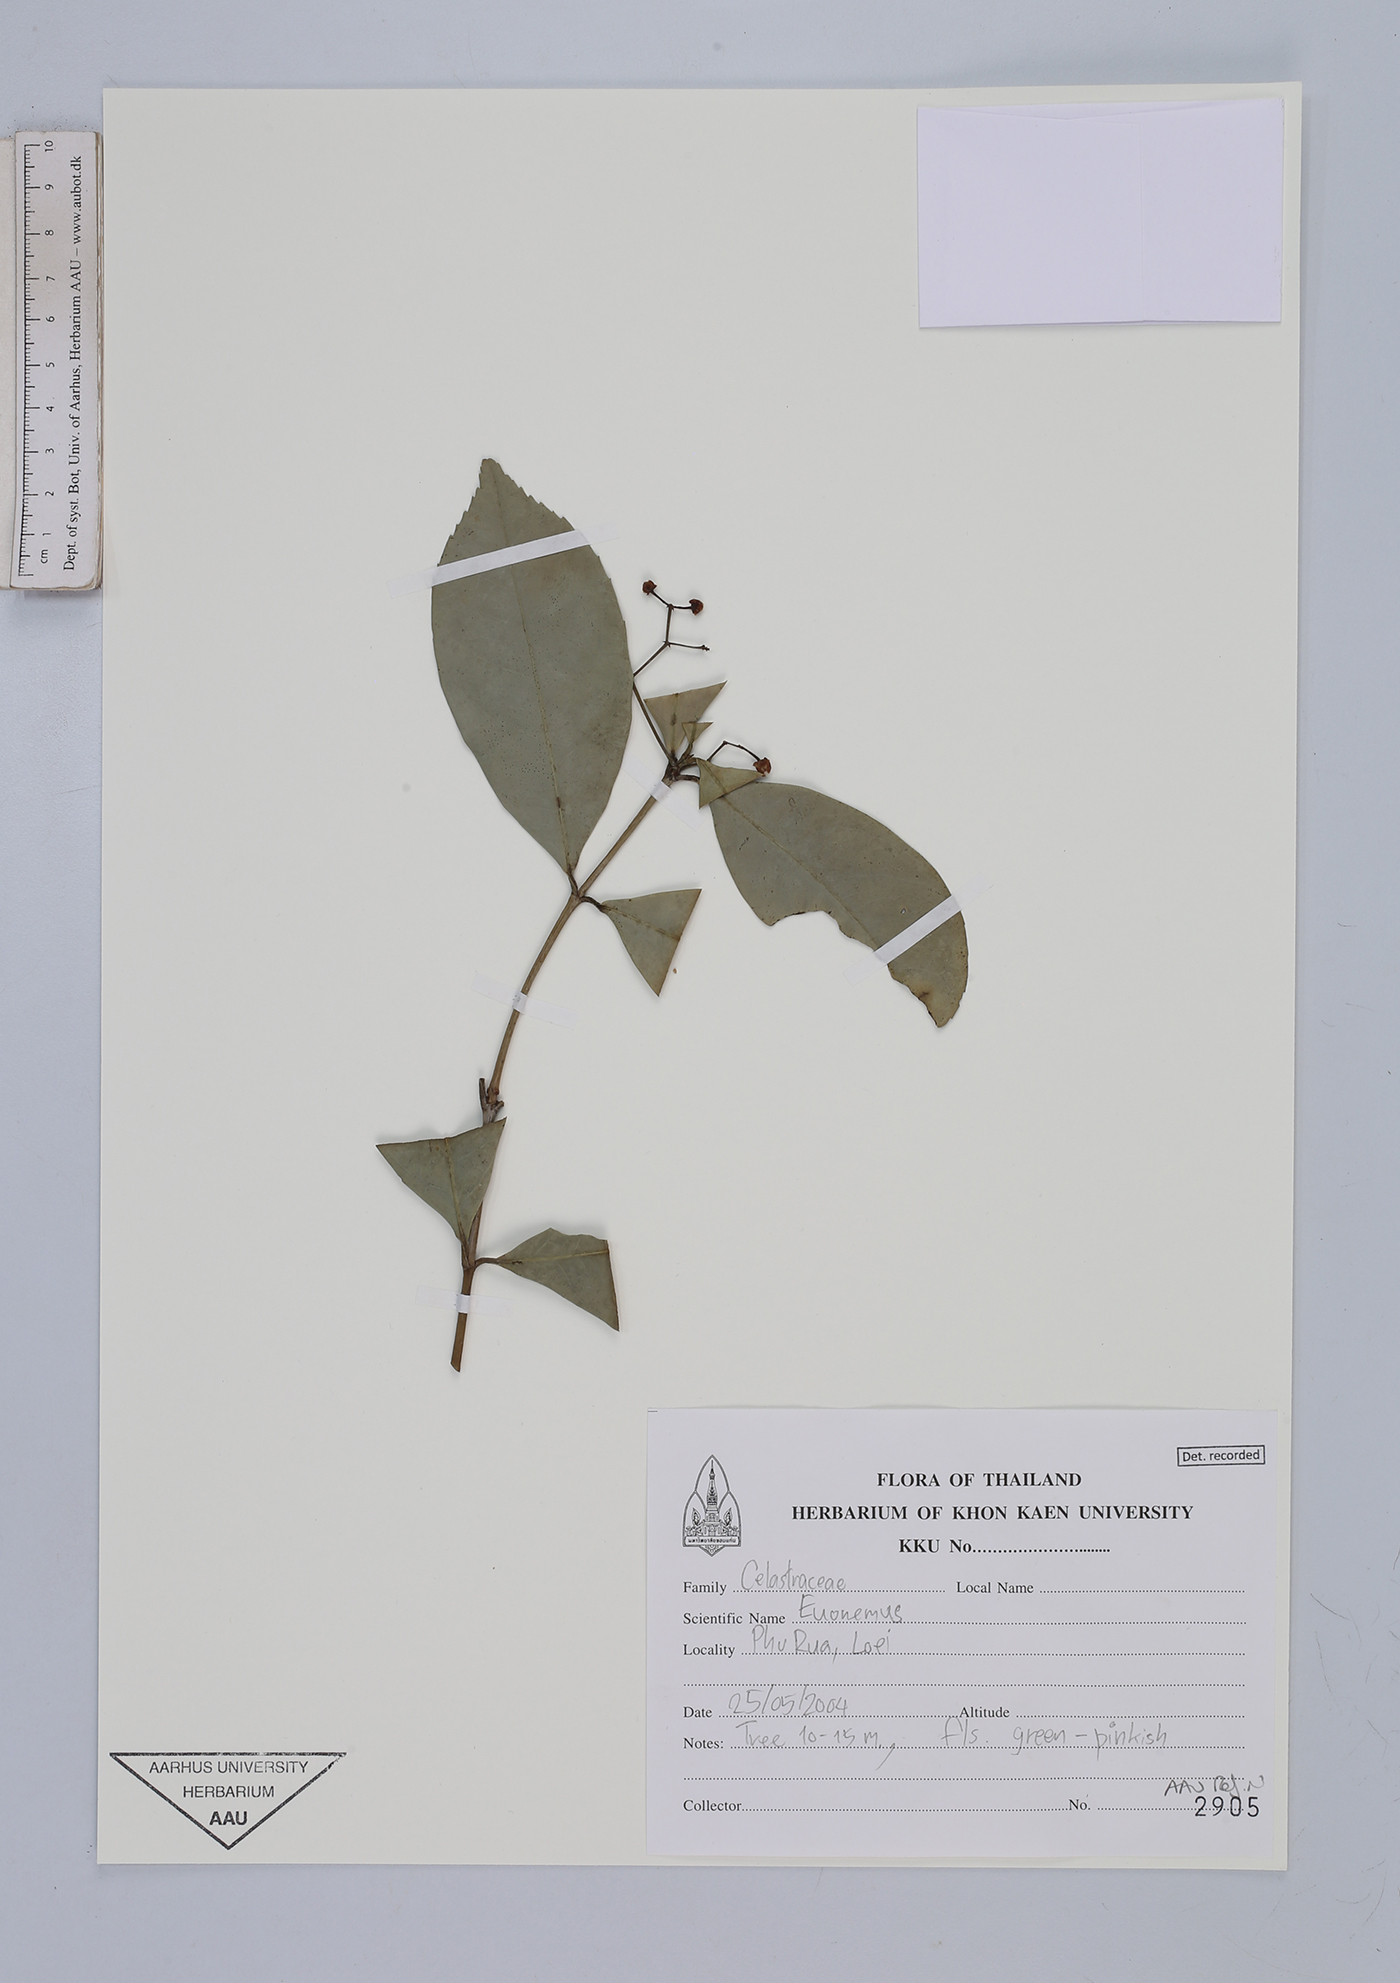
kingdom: Plantae
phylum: Tracheophyta
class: Magnoliopsida
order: Celastrales
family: Celastraceae
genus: Euonymus
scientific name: Euonymus
